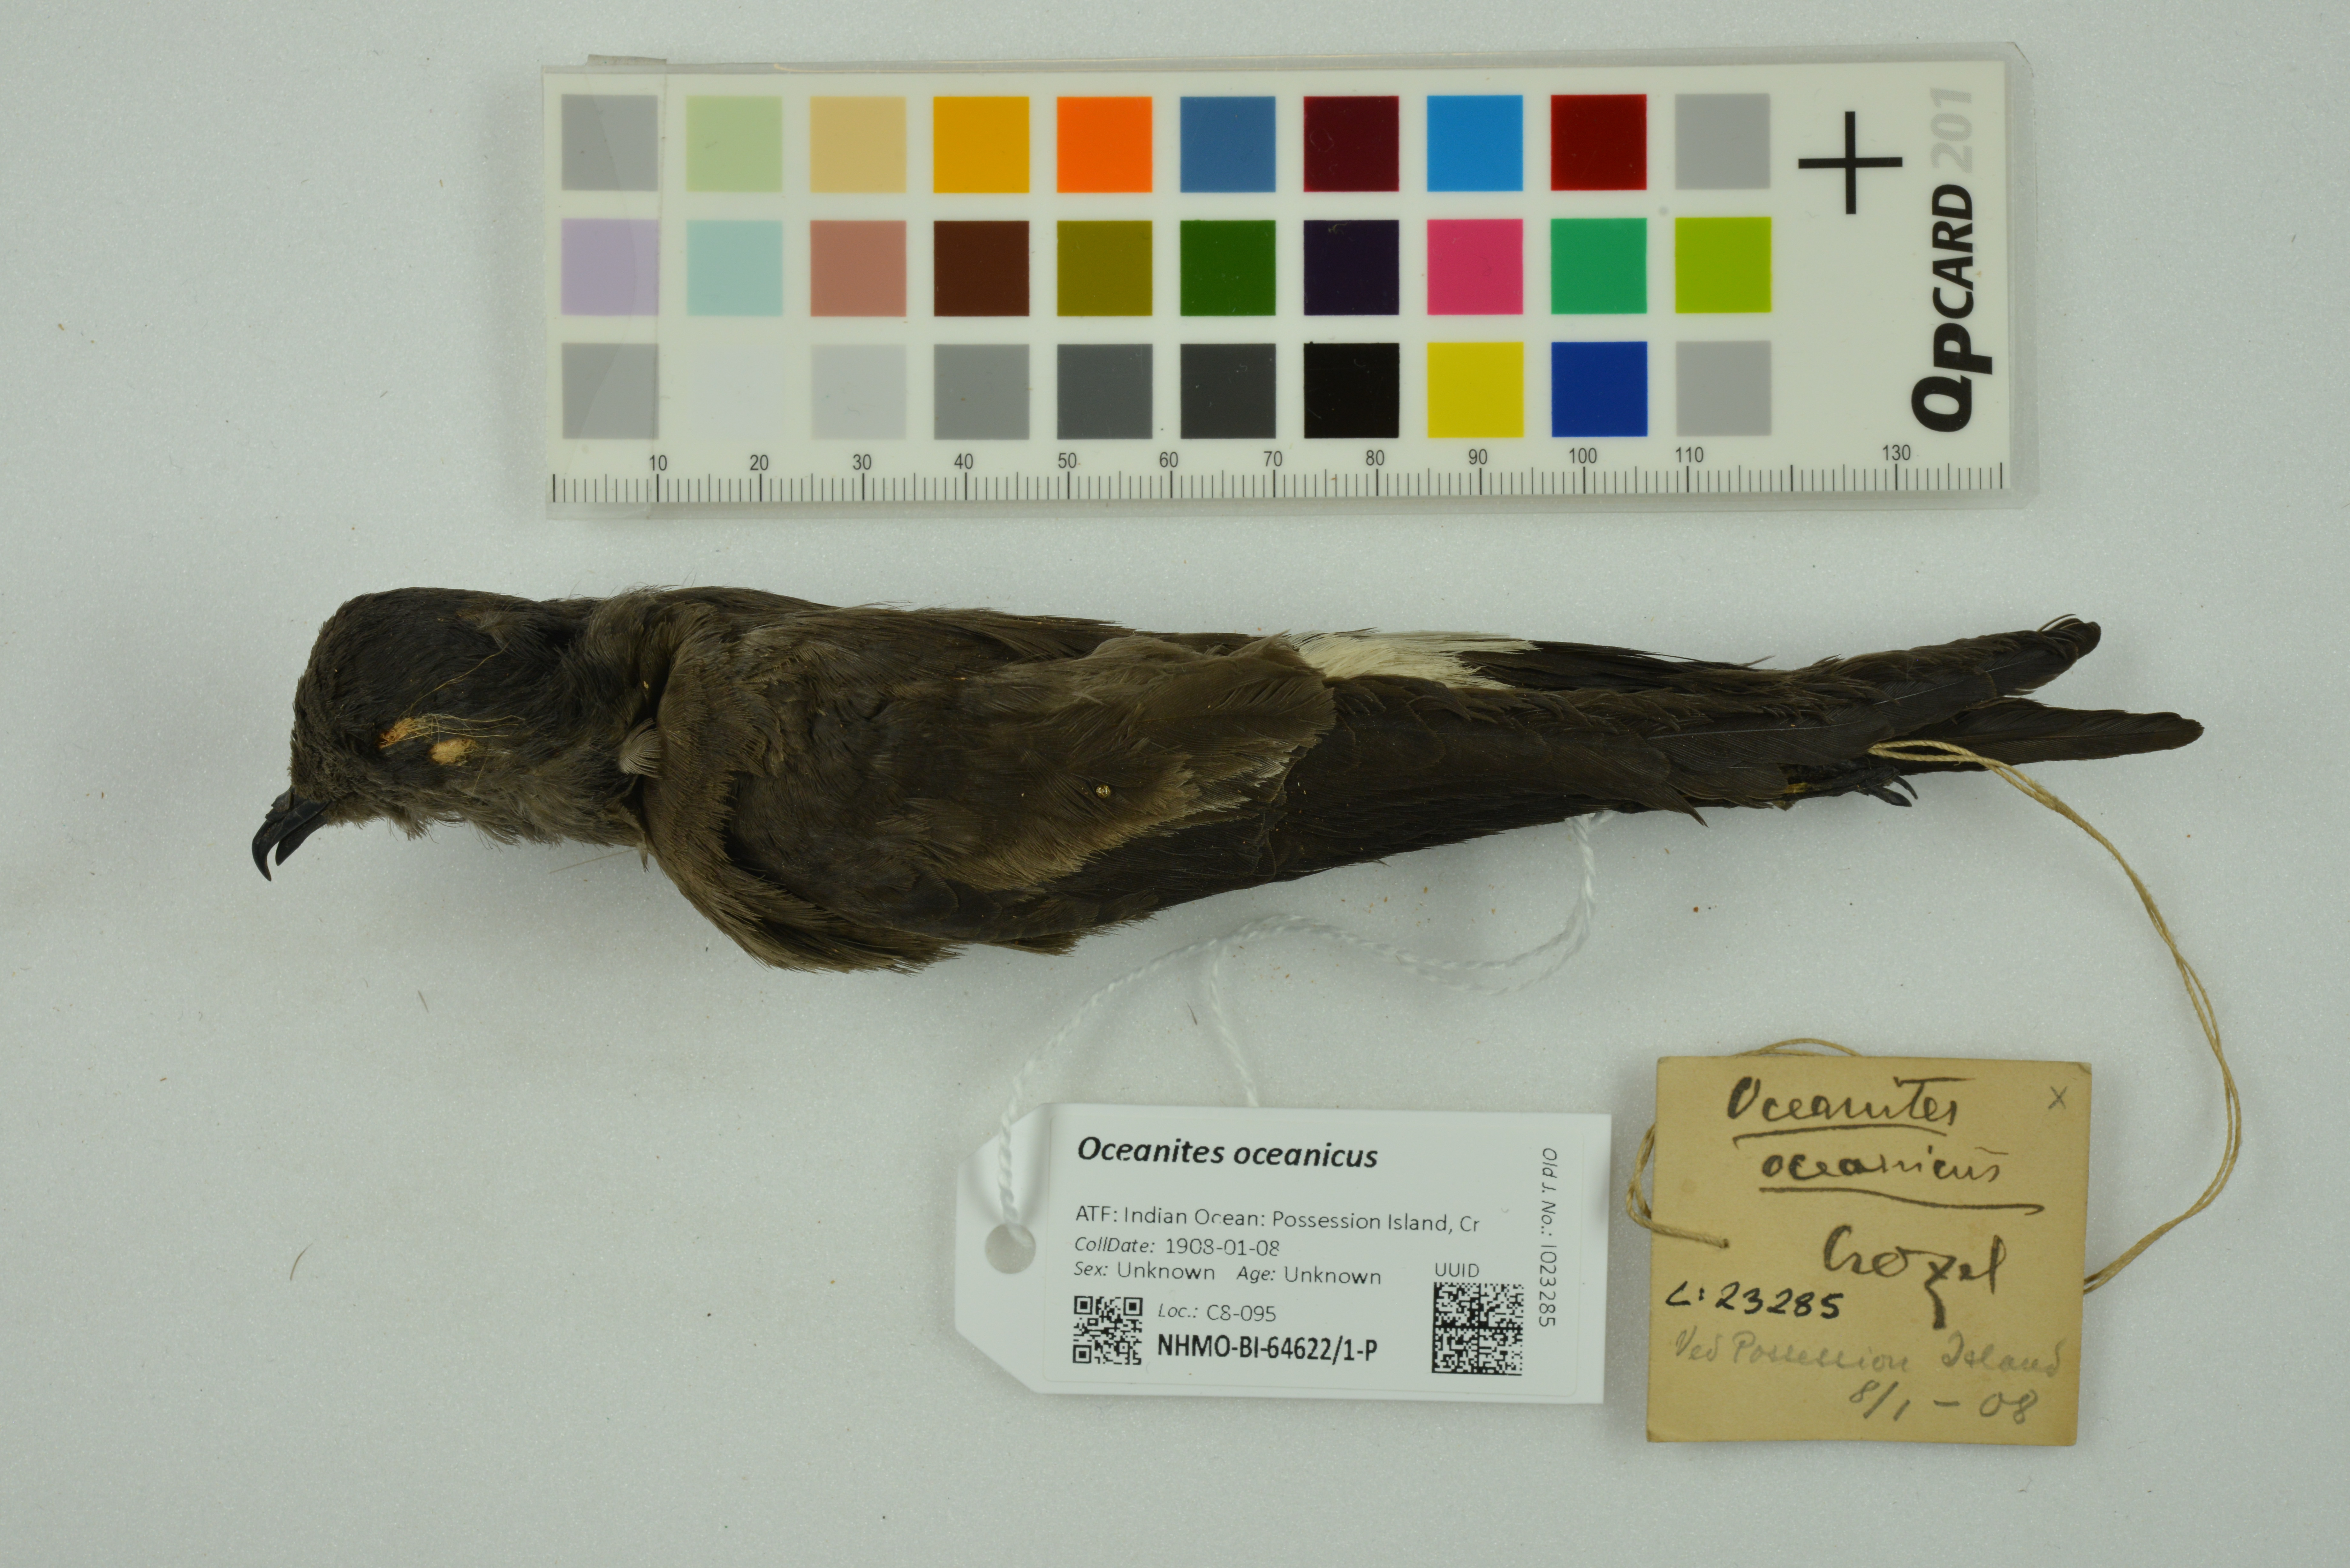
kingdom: Animalia
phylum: Chordata
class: Aves
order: Procellariiformes
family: Hydrobatidae
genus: Oceanites
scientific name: Oceanites oceanicus
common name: Wilson's storm petrel
